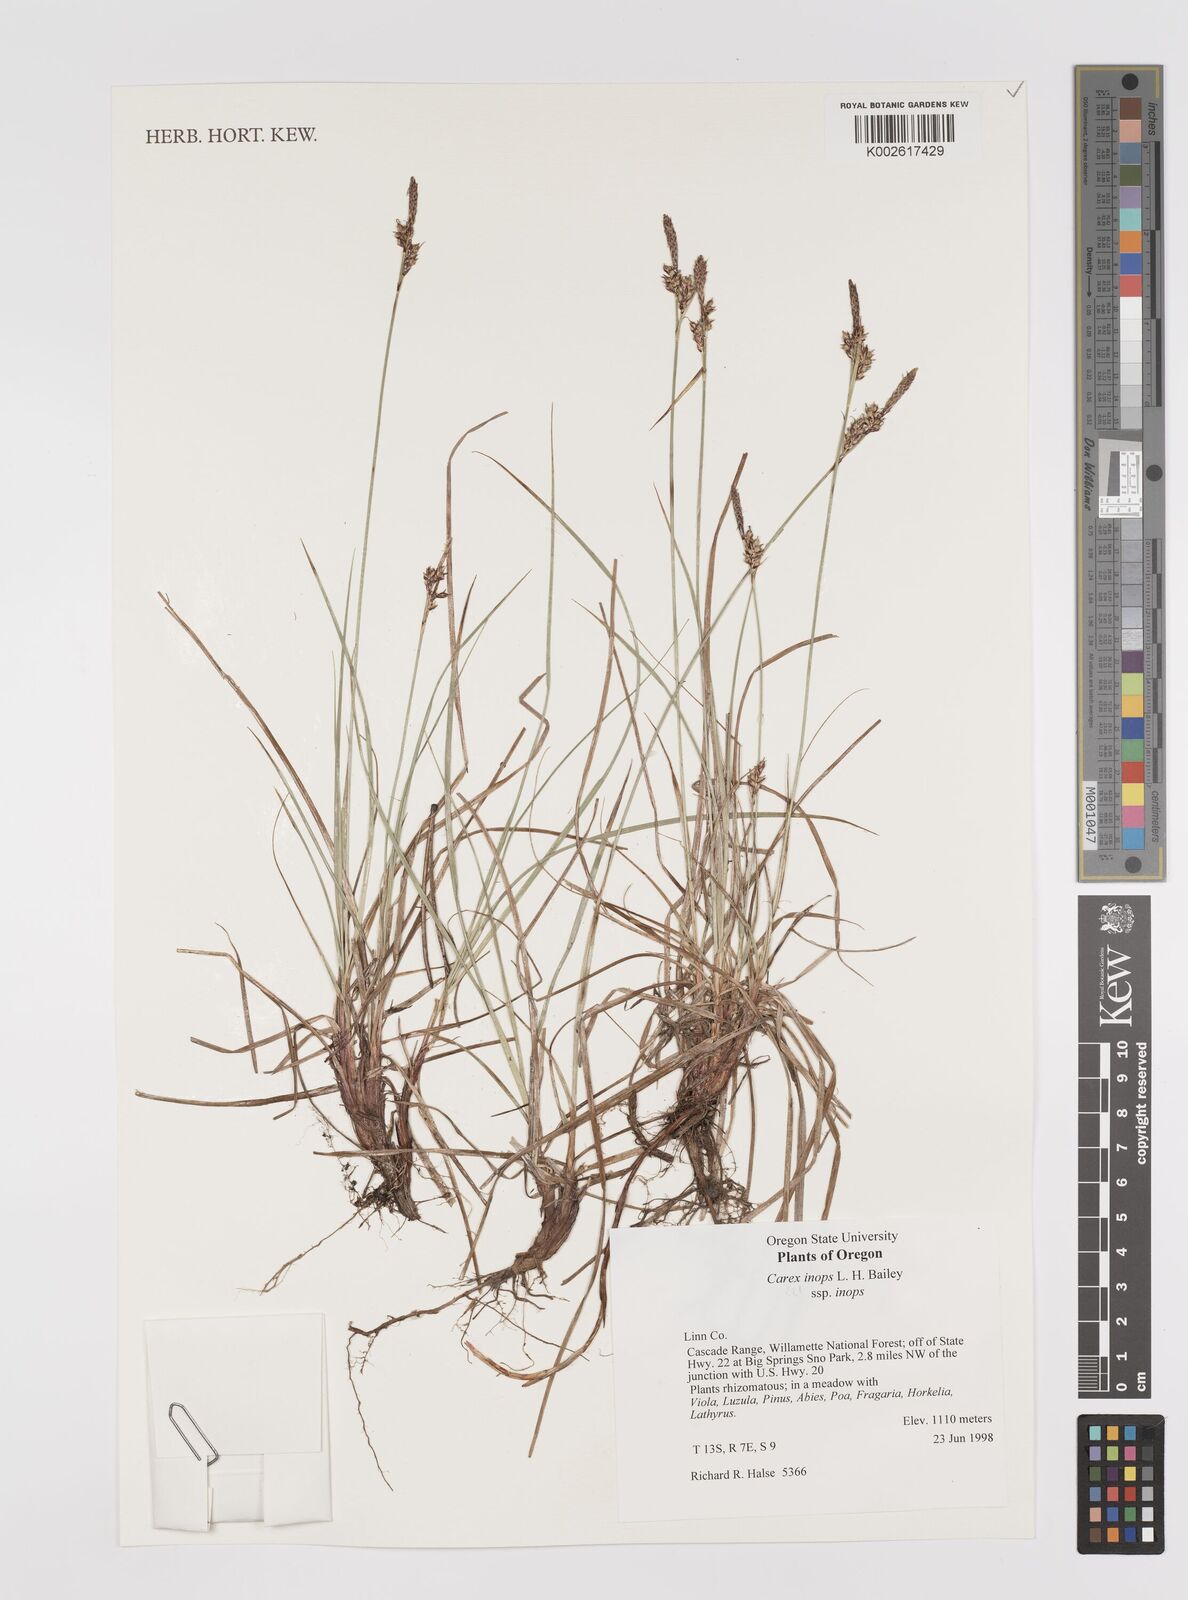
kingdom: Plantae
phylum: Tracheophyta
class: Liliopsida
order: Poales
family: Cyperaceae
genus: Carex
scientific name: Carex inops
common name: Long-stolon sedge
